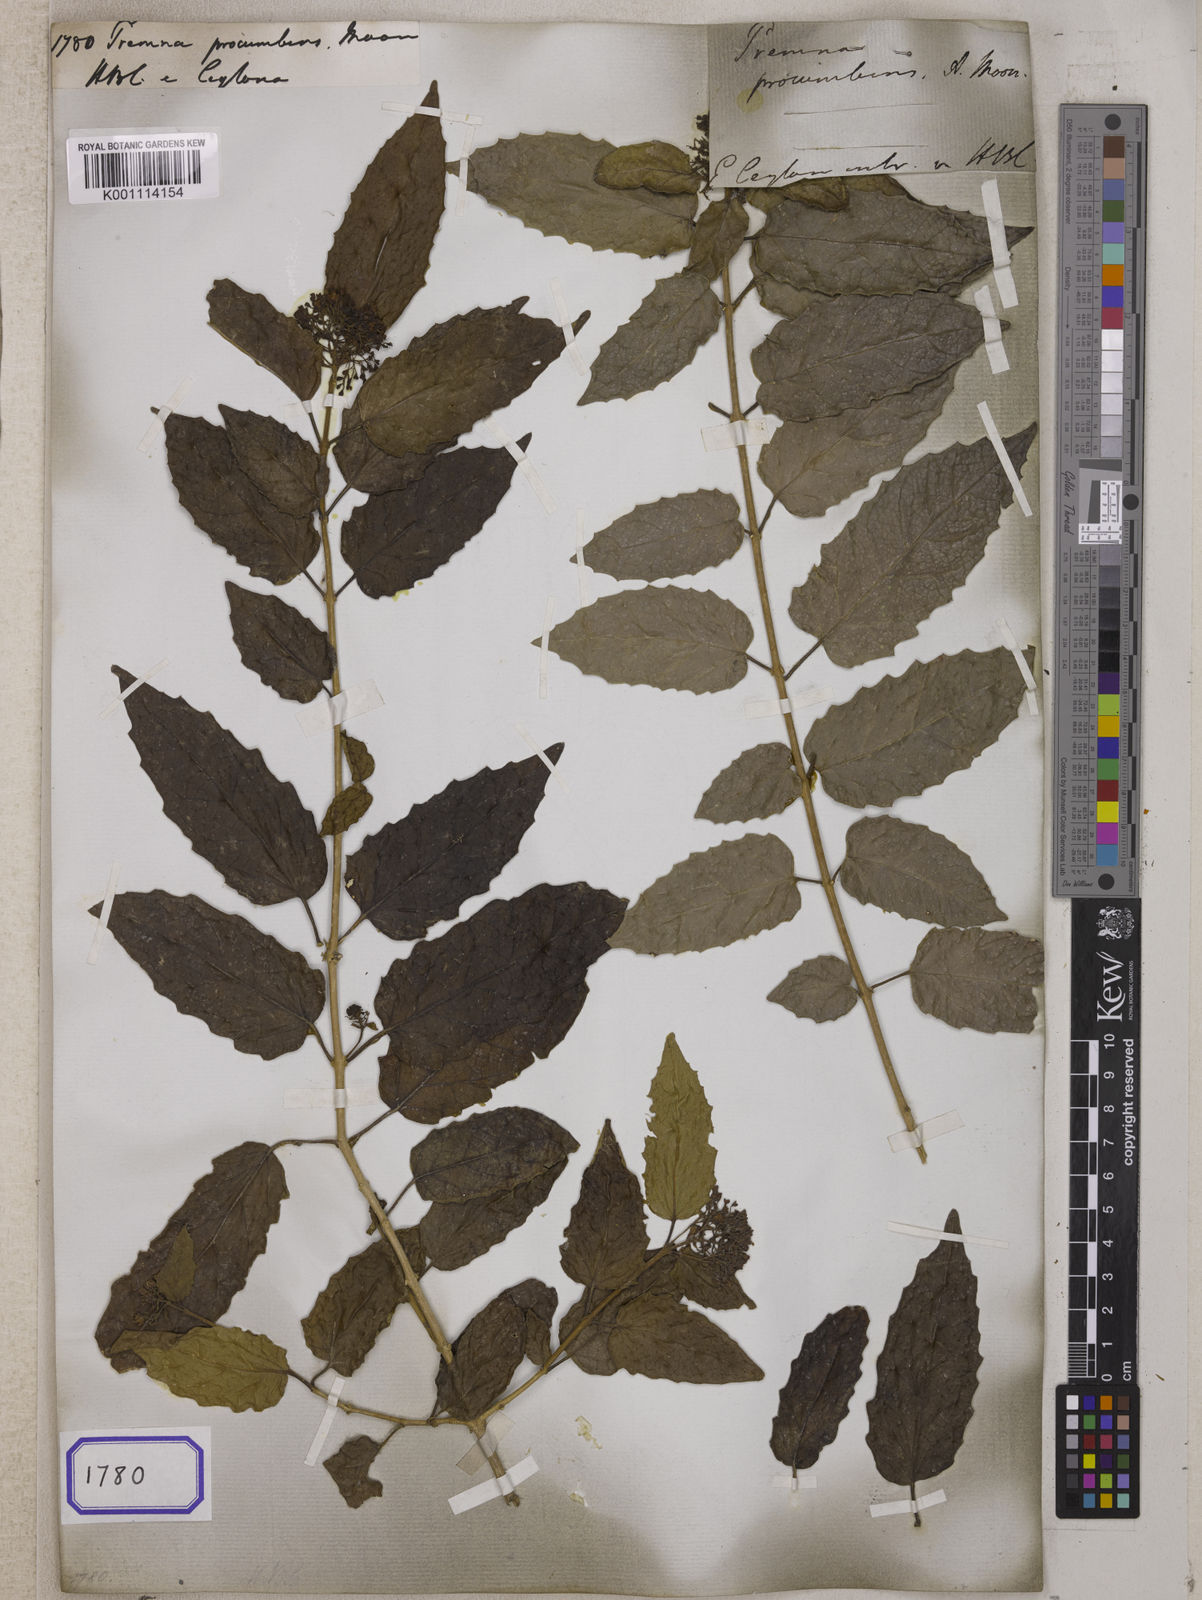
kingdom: Plantae
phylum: Tracheophyta
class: Magnoliopsida
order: Lamiales
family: Lamiaceae
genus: Premna
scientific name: Premna
